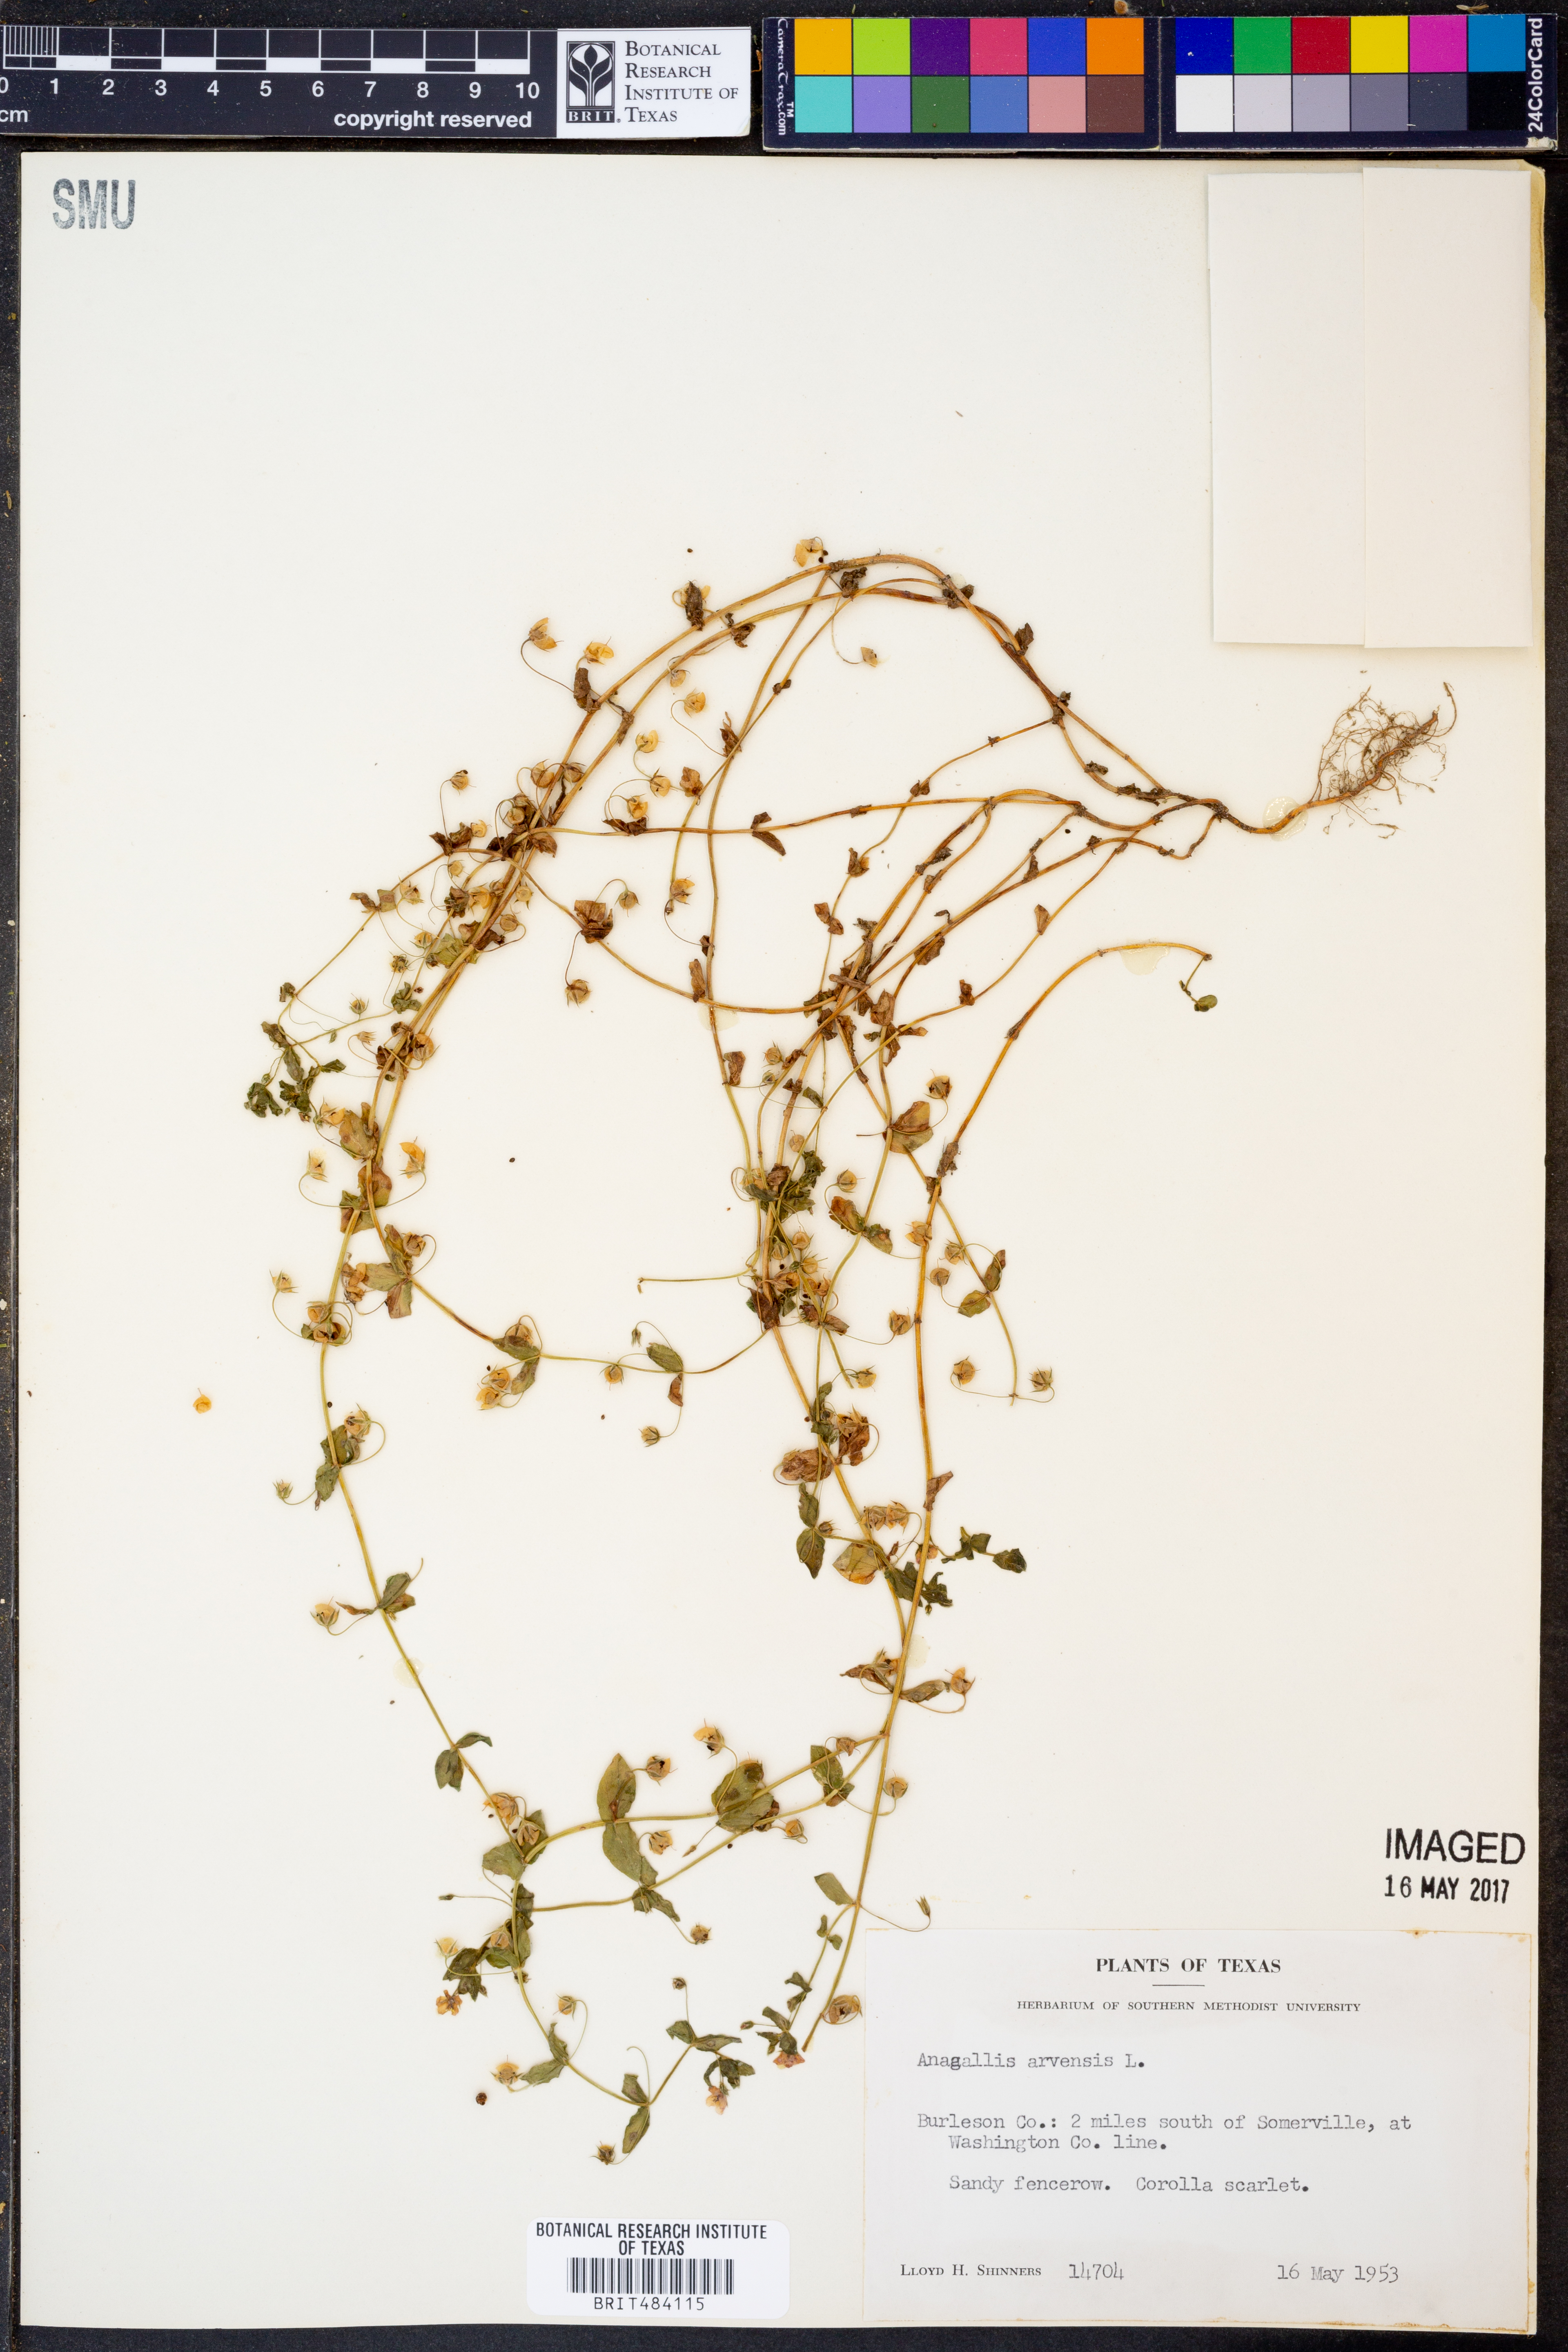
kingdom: Plantae
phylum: Tracheophyta
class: Magnoliopsida
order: Ericales
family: Primulaceae
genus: Lysimachia
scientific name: Lysimachia arvensis
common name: Scarlet pimpernel
